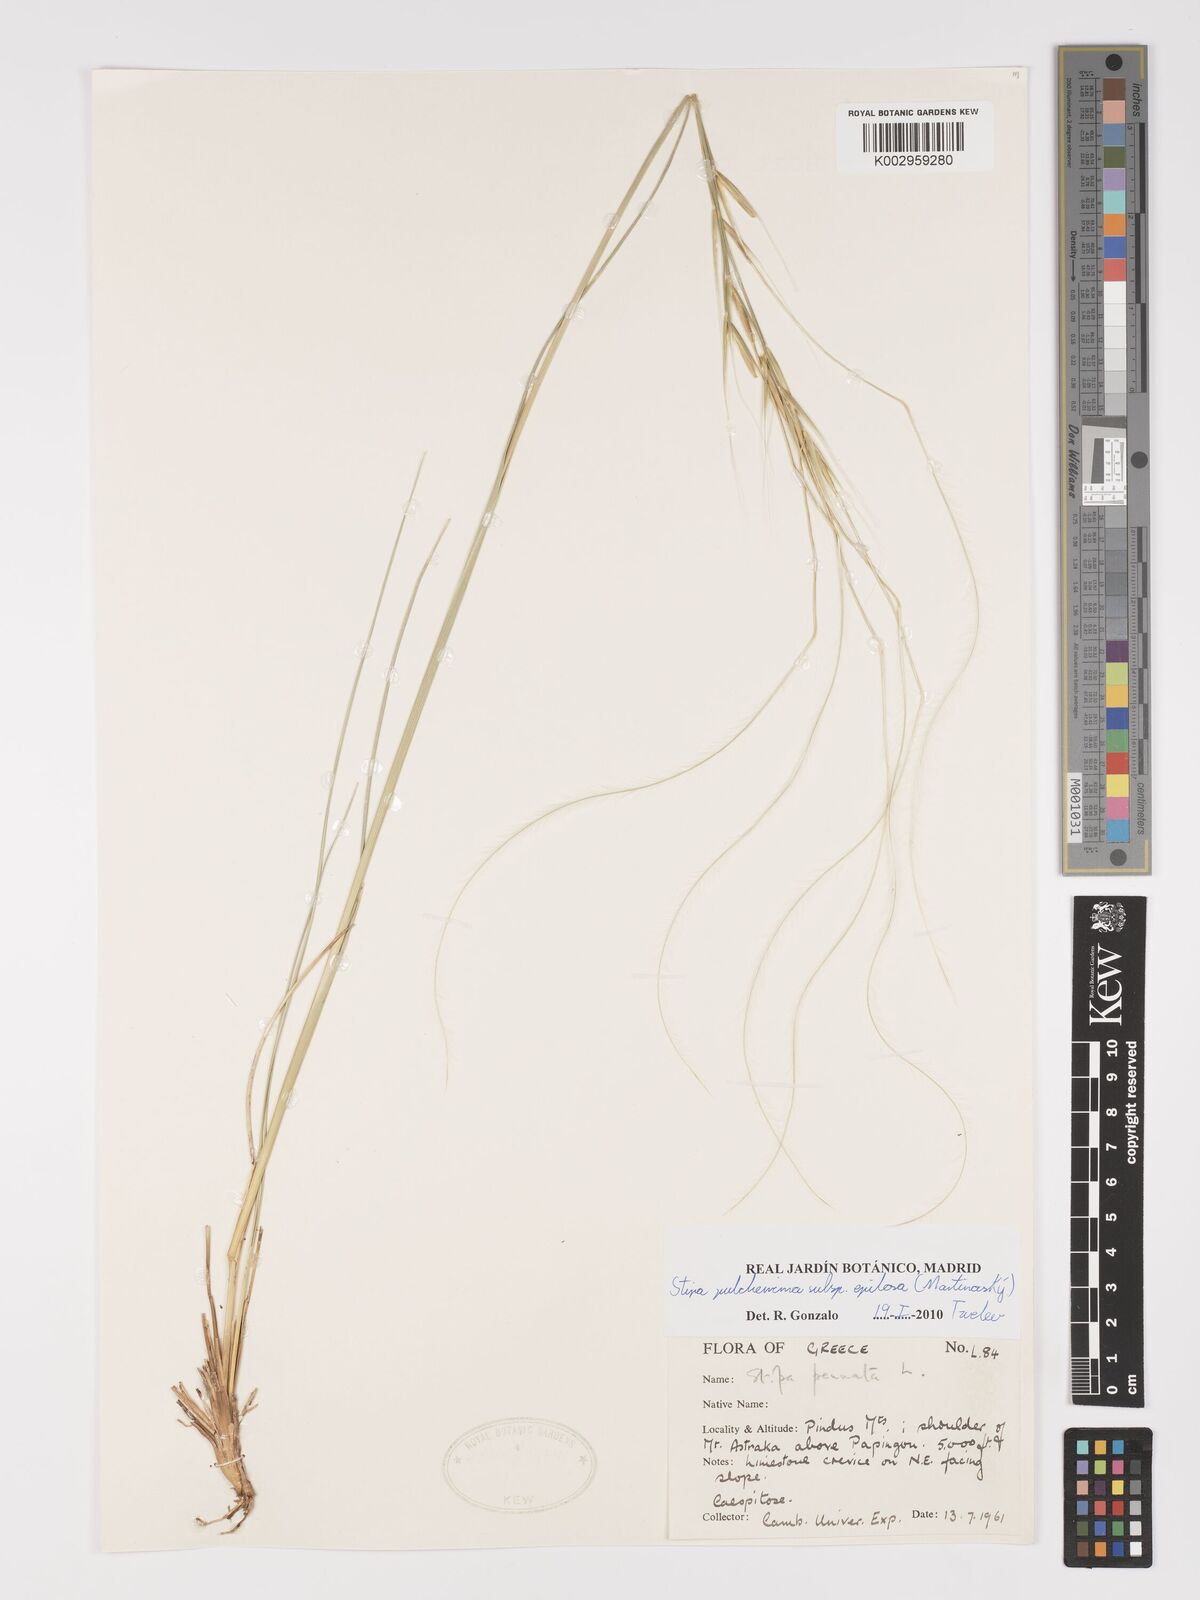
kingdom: Plantae
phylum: Tracheophyta
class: Liliopsida
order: Poales
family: Poaceae
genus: Stipa
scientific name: Stipa pulcherrima
